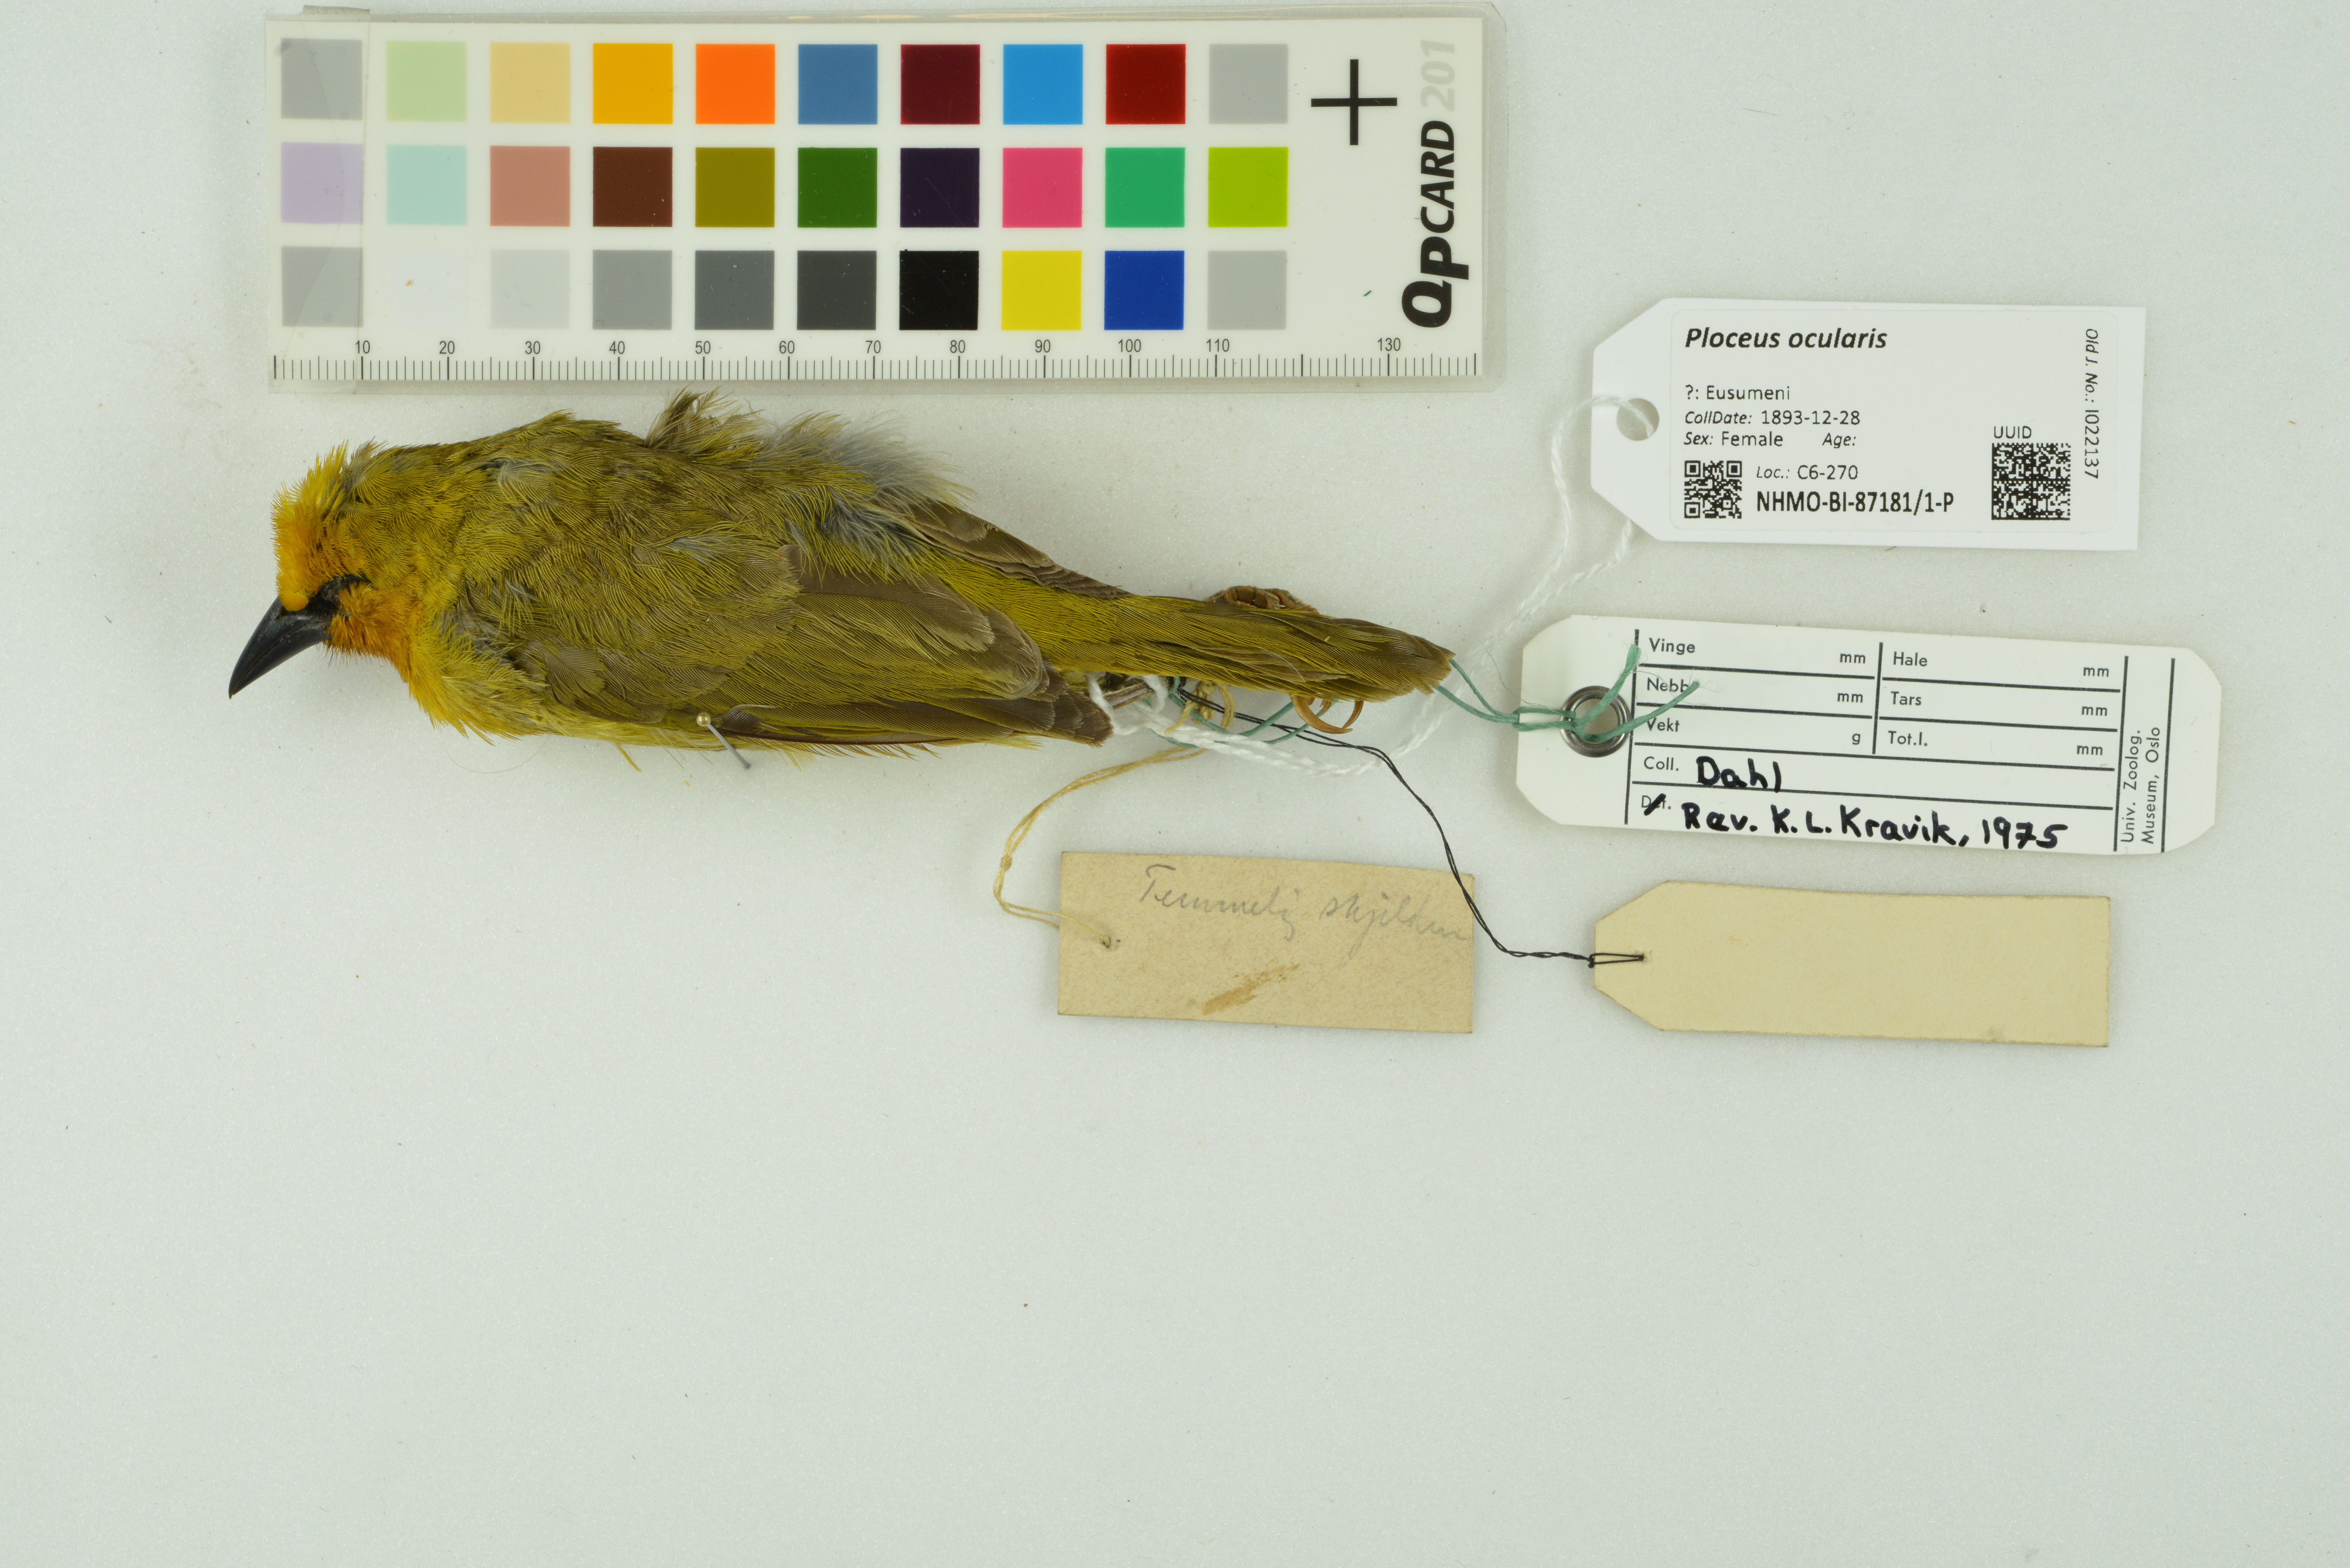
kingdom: Animalia
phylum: Chordata
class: Aves
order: Passeriformes
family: Ploceidae
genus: Ploceus
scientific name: Ploceus ocularis
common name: Spectacled weaver
